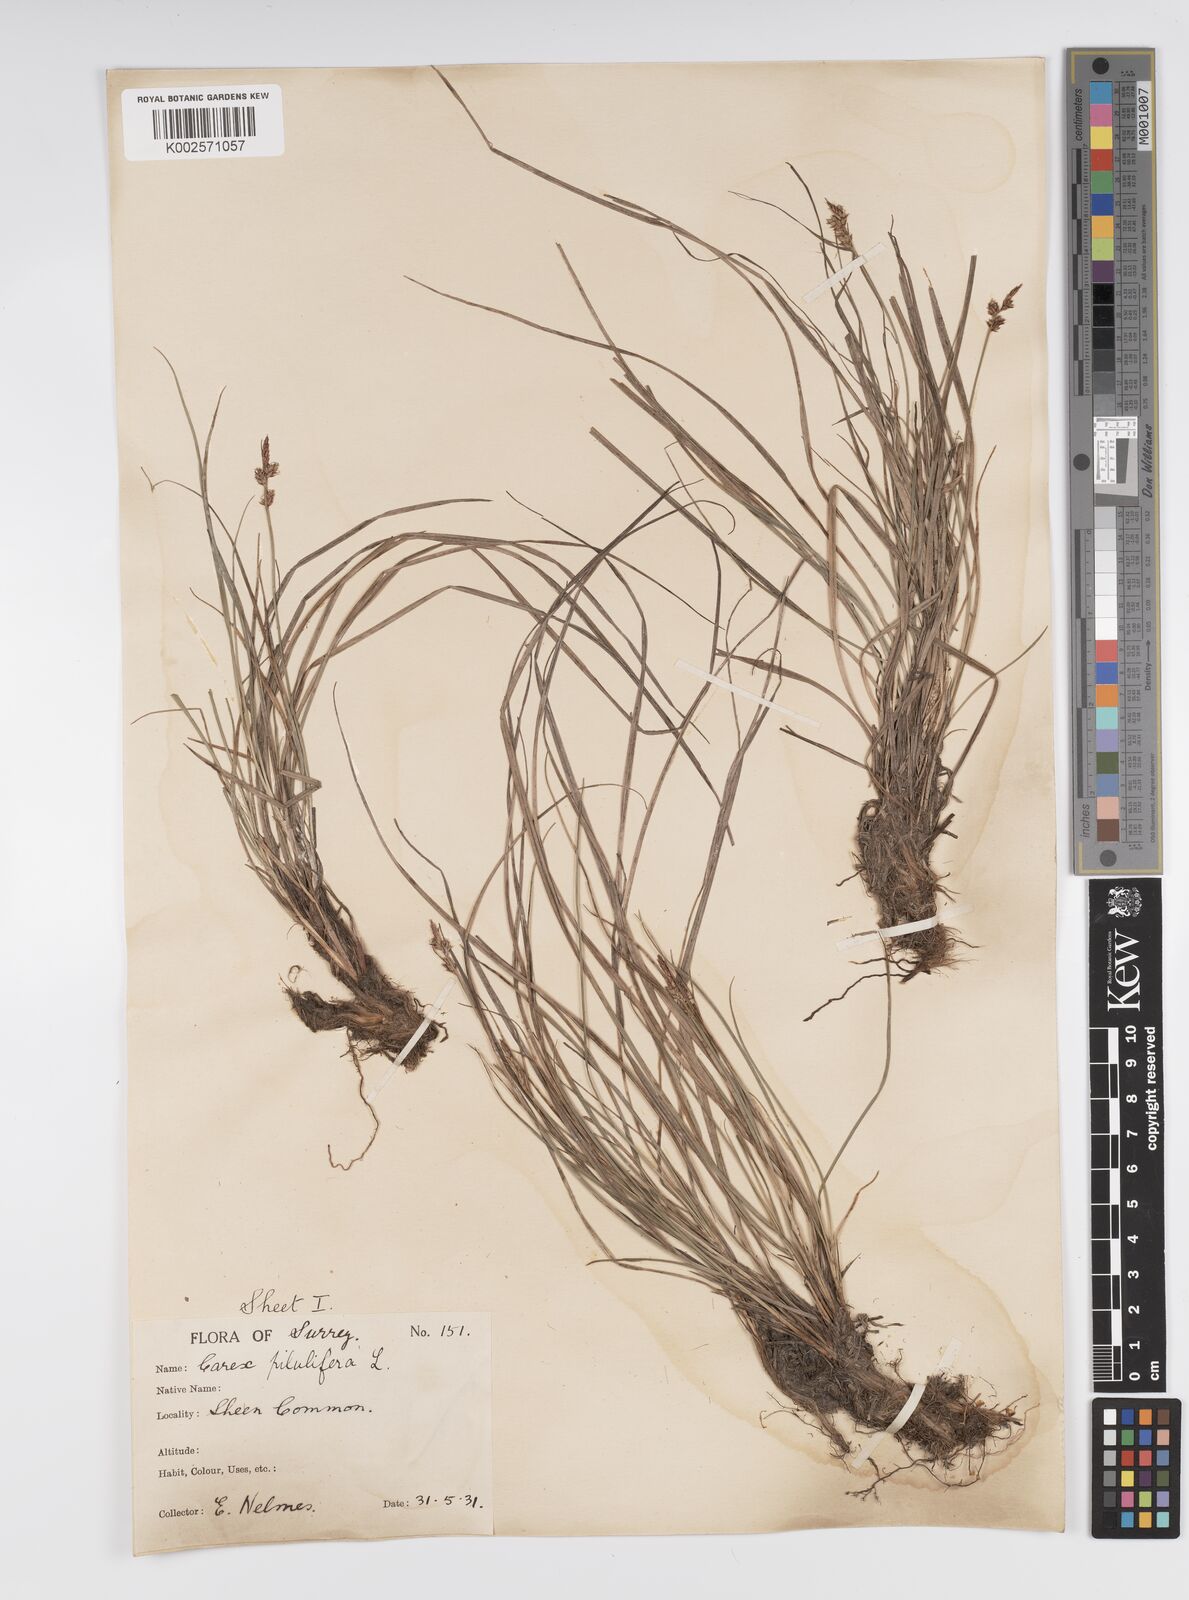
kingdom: Plantae
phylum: Tracheophyta
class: Liliopsida
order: Poales
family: Cyperaceae
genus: Carex
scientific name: Carex pilulifera
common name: Pill sedge
